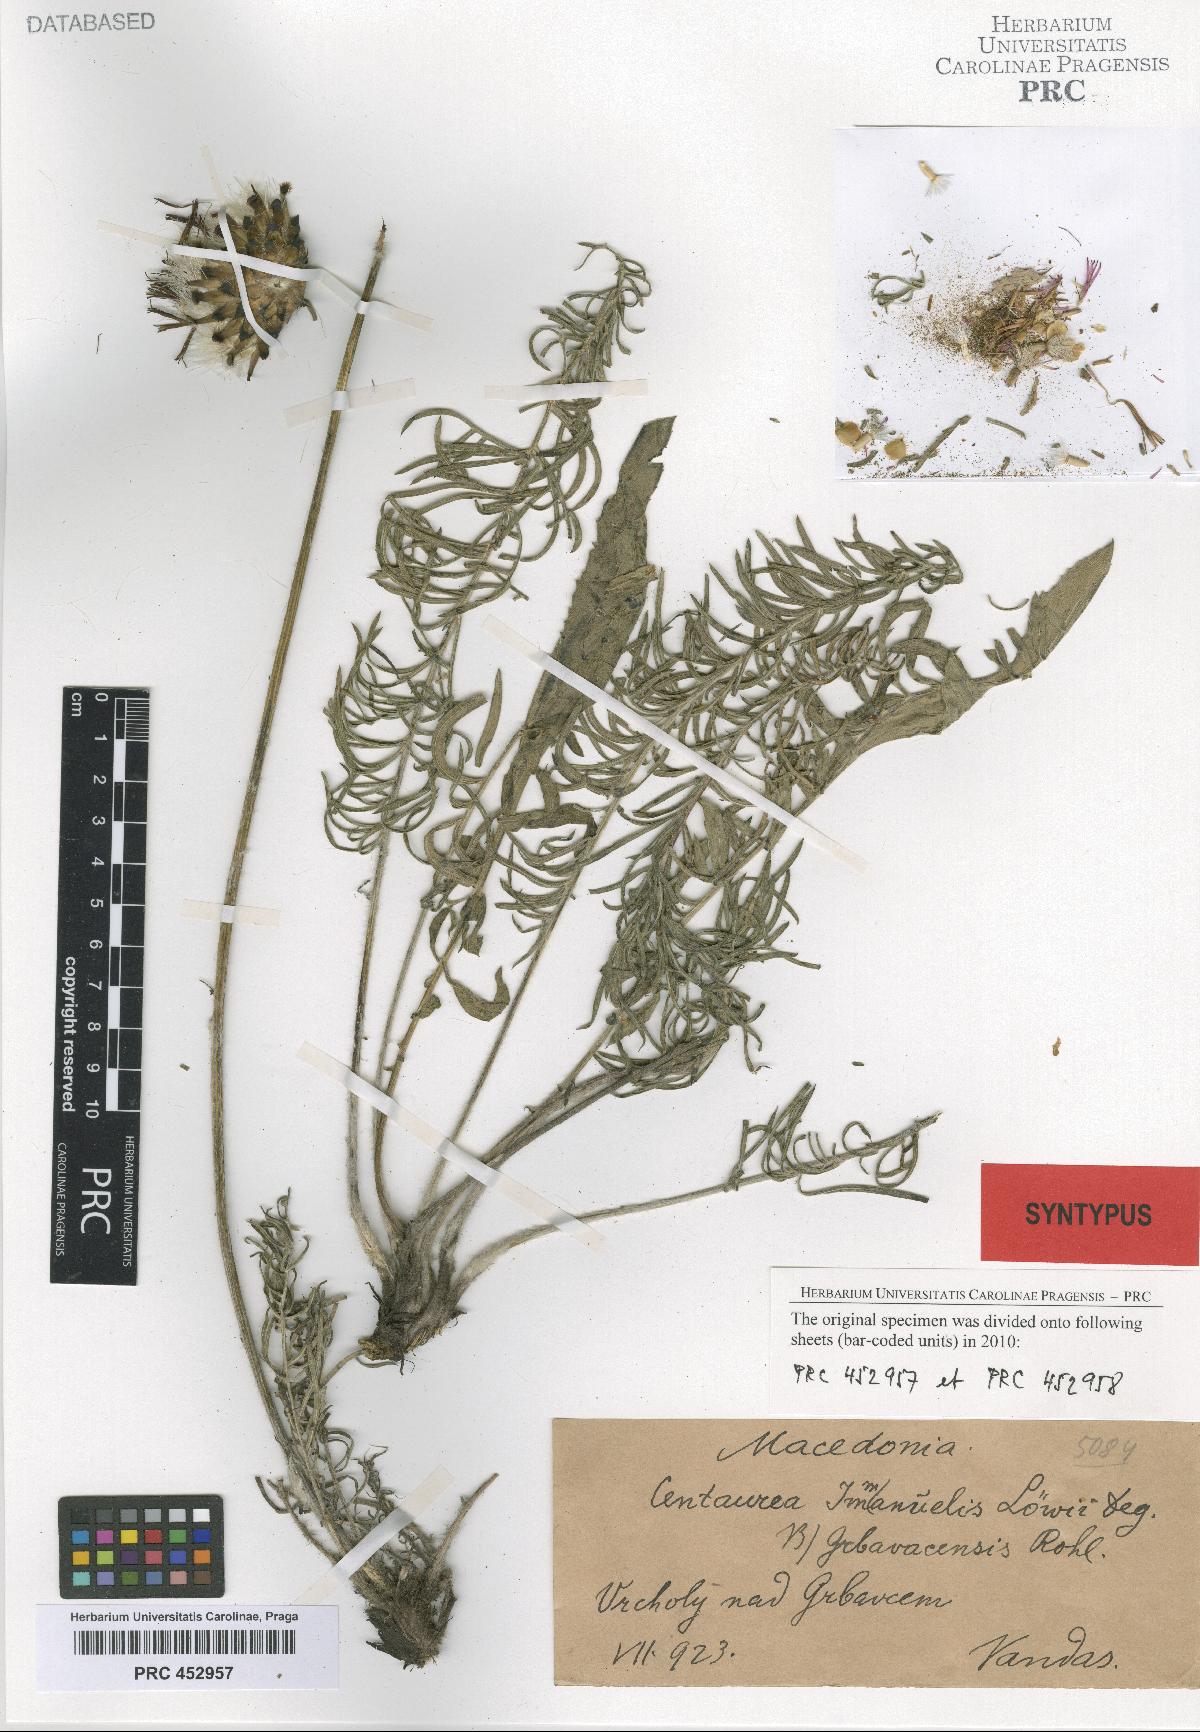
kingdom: Plantae
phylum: Tracheophyta
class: Magnoliopsida
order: Asterales
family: Asteraceae
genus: Centaurea
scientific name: Centaurea grbavacensis
